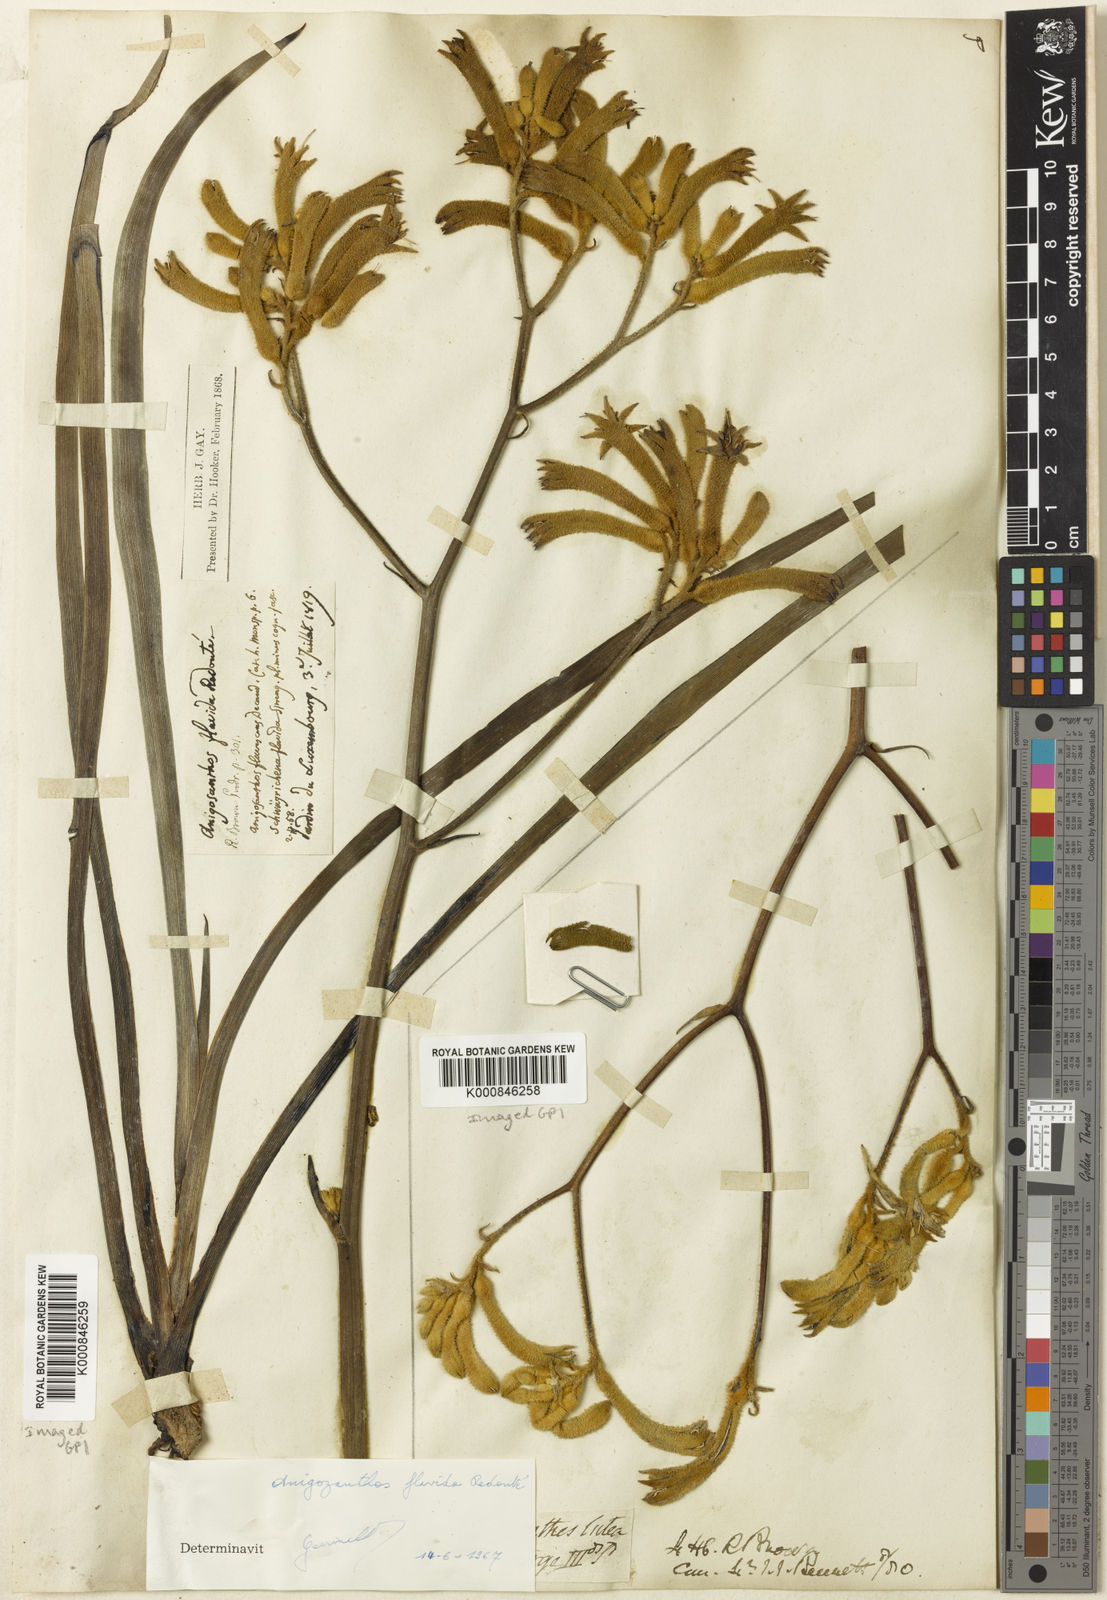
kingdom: Plantae
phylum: Tracheophyta
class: Liliopsida
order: Commelinales
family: Haemodoraceae
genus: Anigozanthos
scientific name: Anigozanthos flavidus
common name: Evergreen kangaroo-paw
